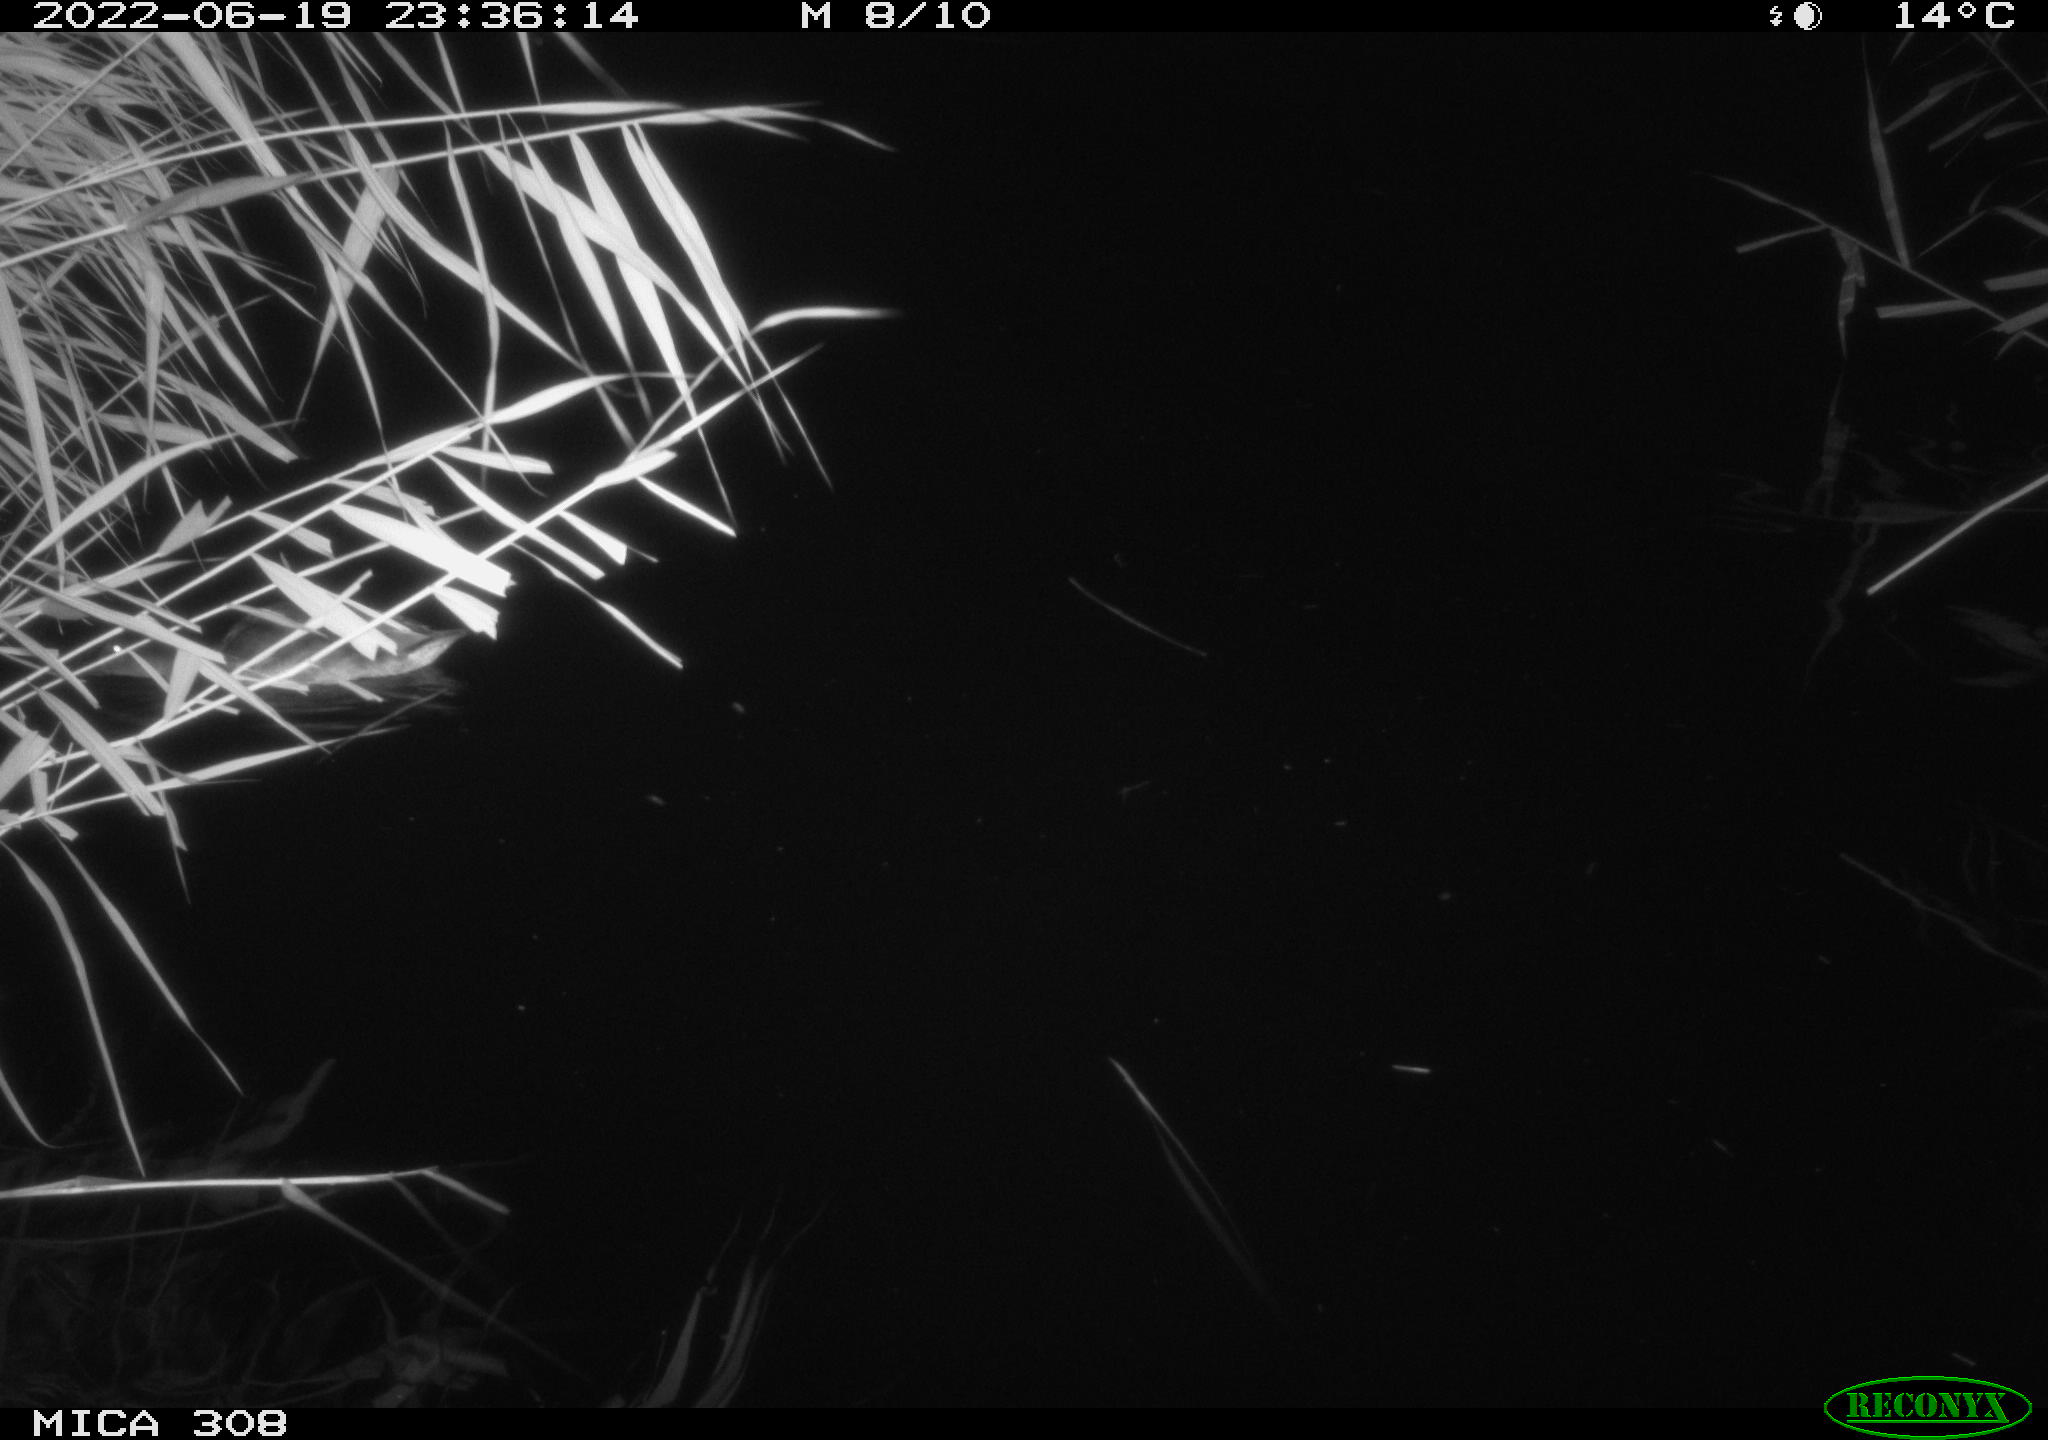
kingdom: Animalia
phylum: Chordata
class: Aves
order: Anseriformes
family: Anatidae
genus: Anas
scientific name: Anas platyrhynchos
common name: Mallard
